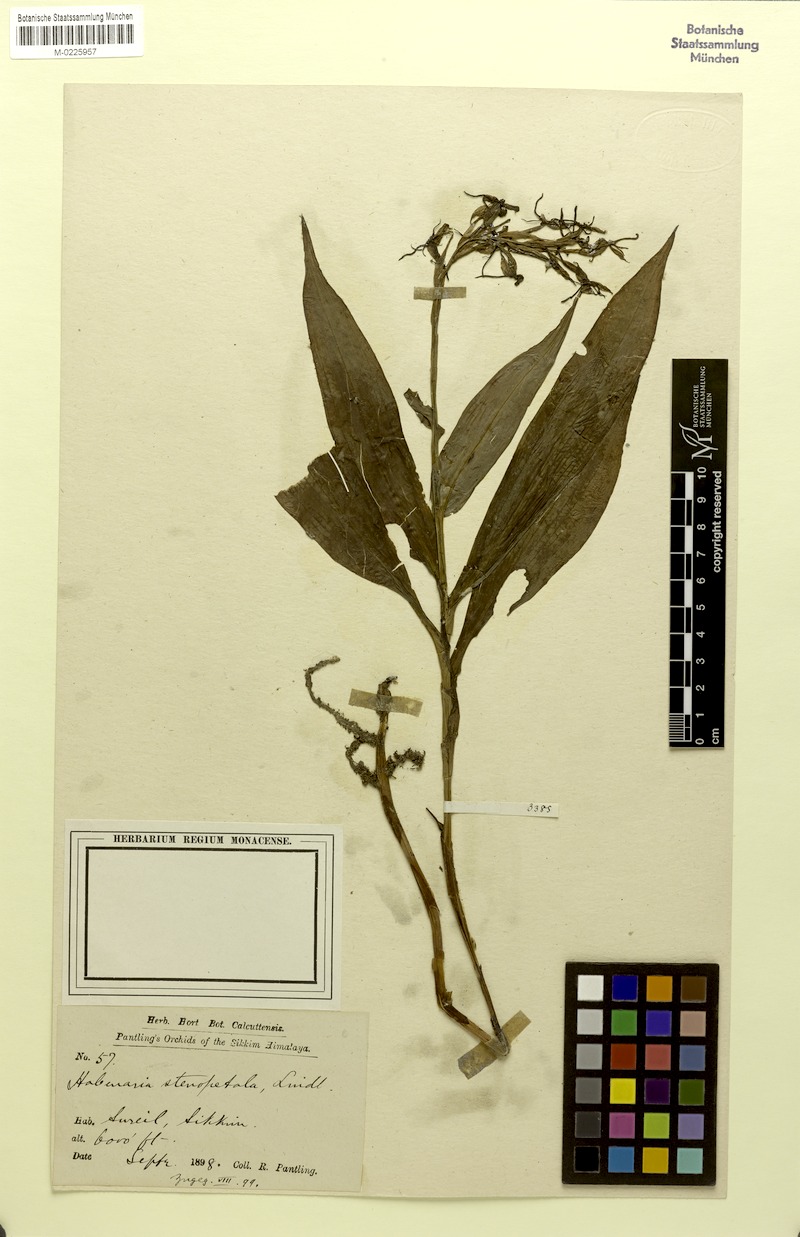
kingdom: Plantae
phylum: Tracheophyta
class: Liliopsida
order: Asparagales
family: Orchidaceae
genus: Habenaria
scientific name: Habenaria stenopetala
